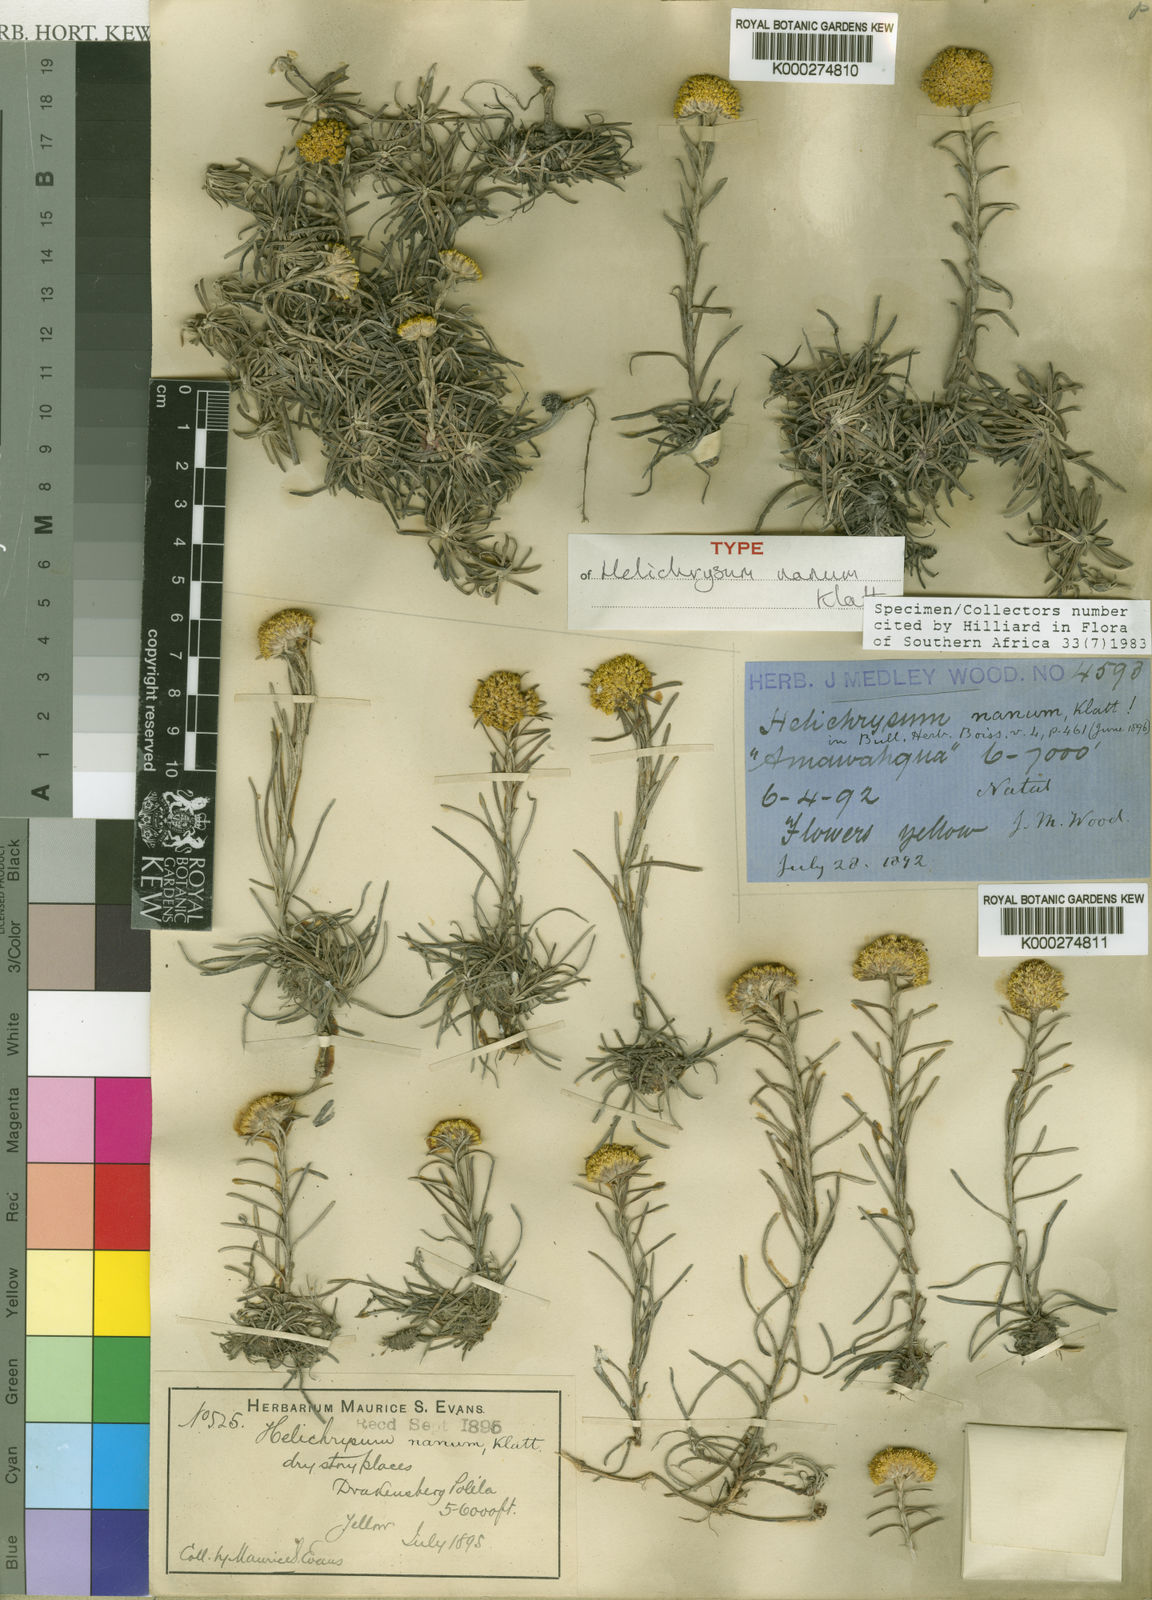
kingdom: Plantae
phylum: Tracheophyta
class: Magnoliopsida
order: Asterales
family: Asteraceae
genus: Helichrysum
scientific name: Helichrysum nanum
